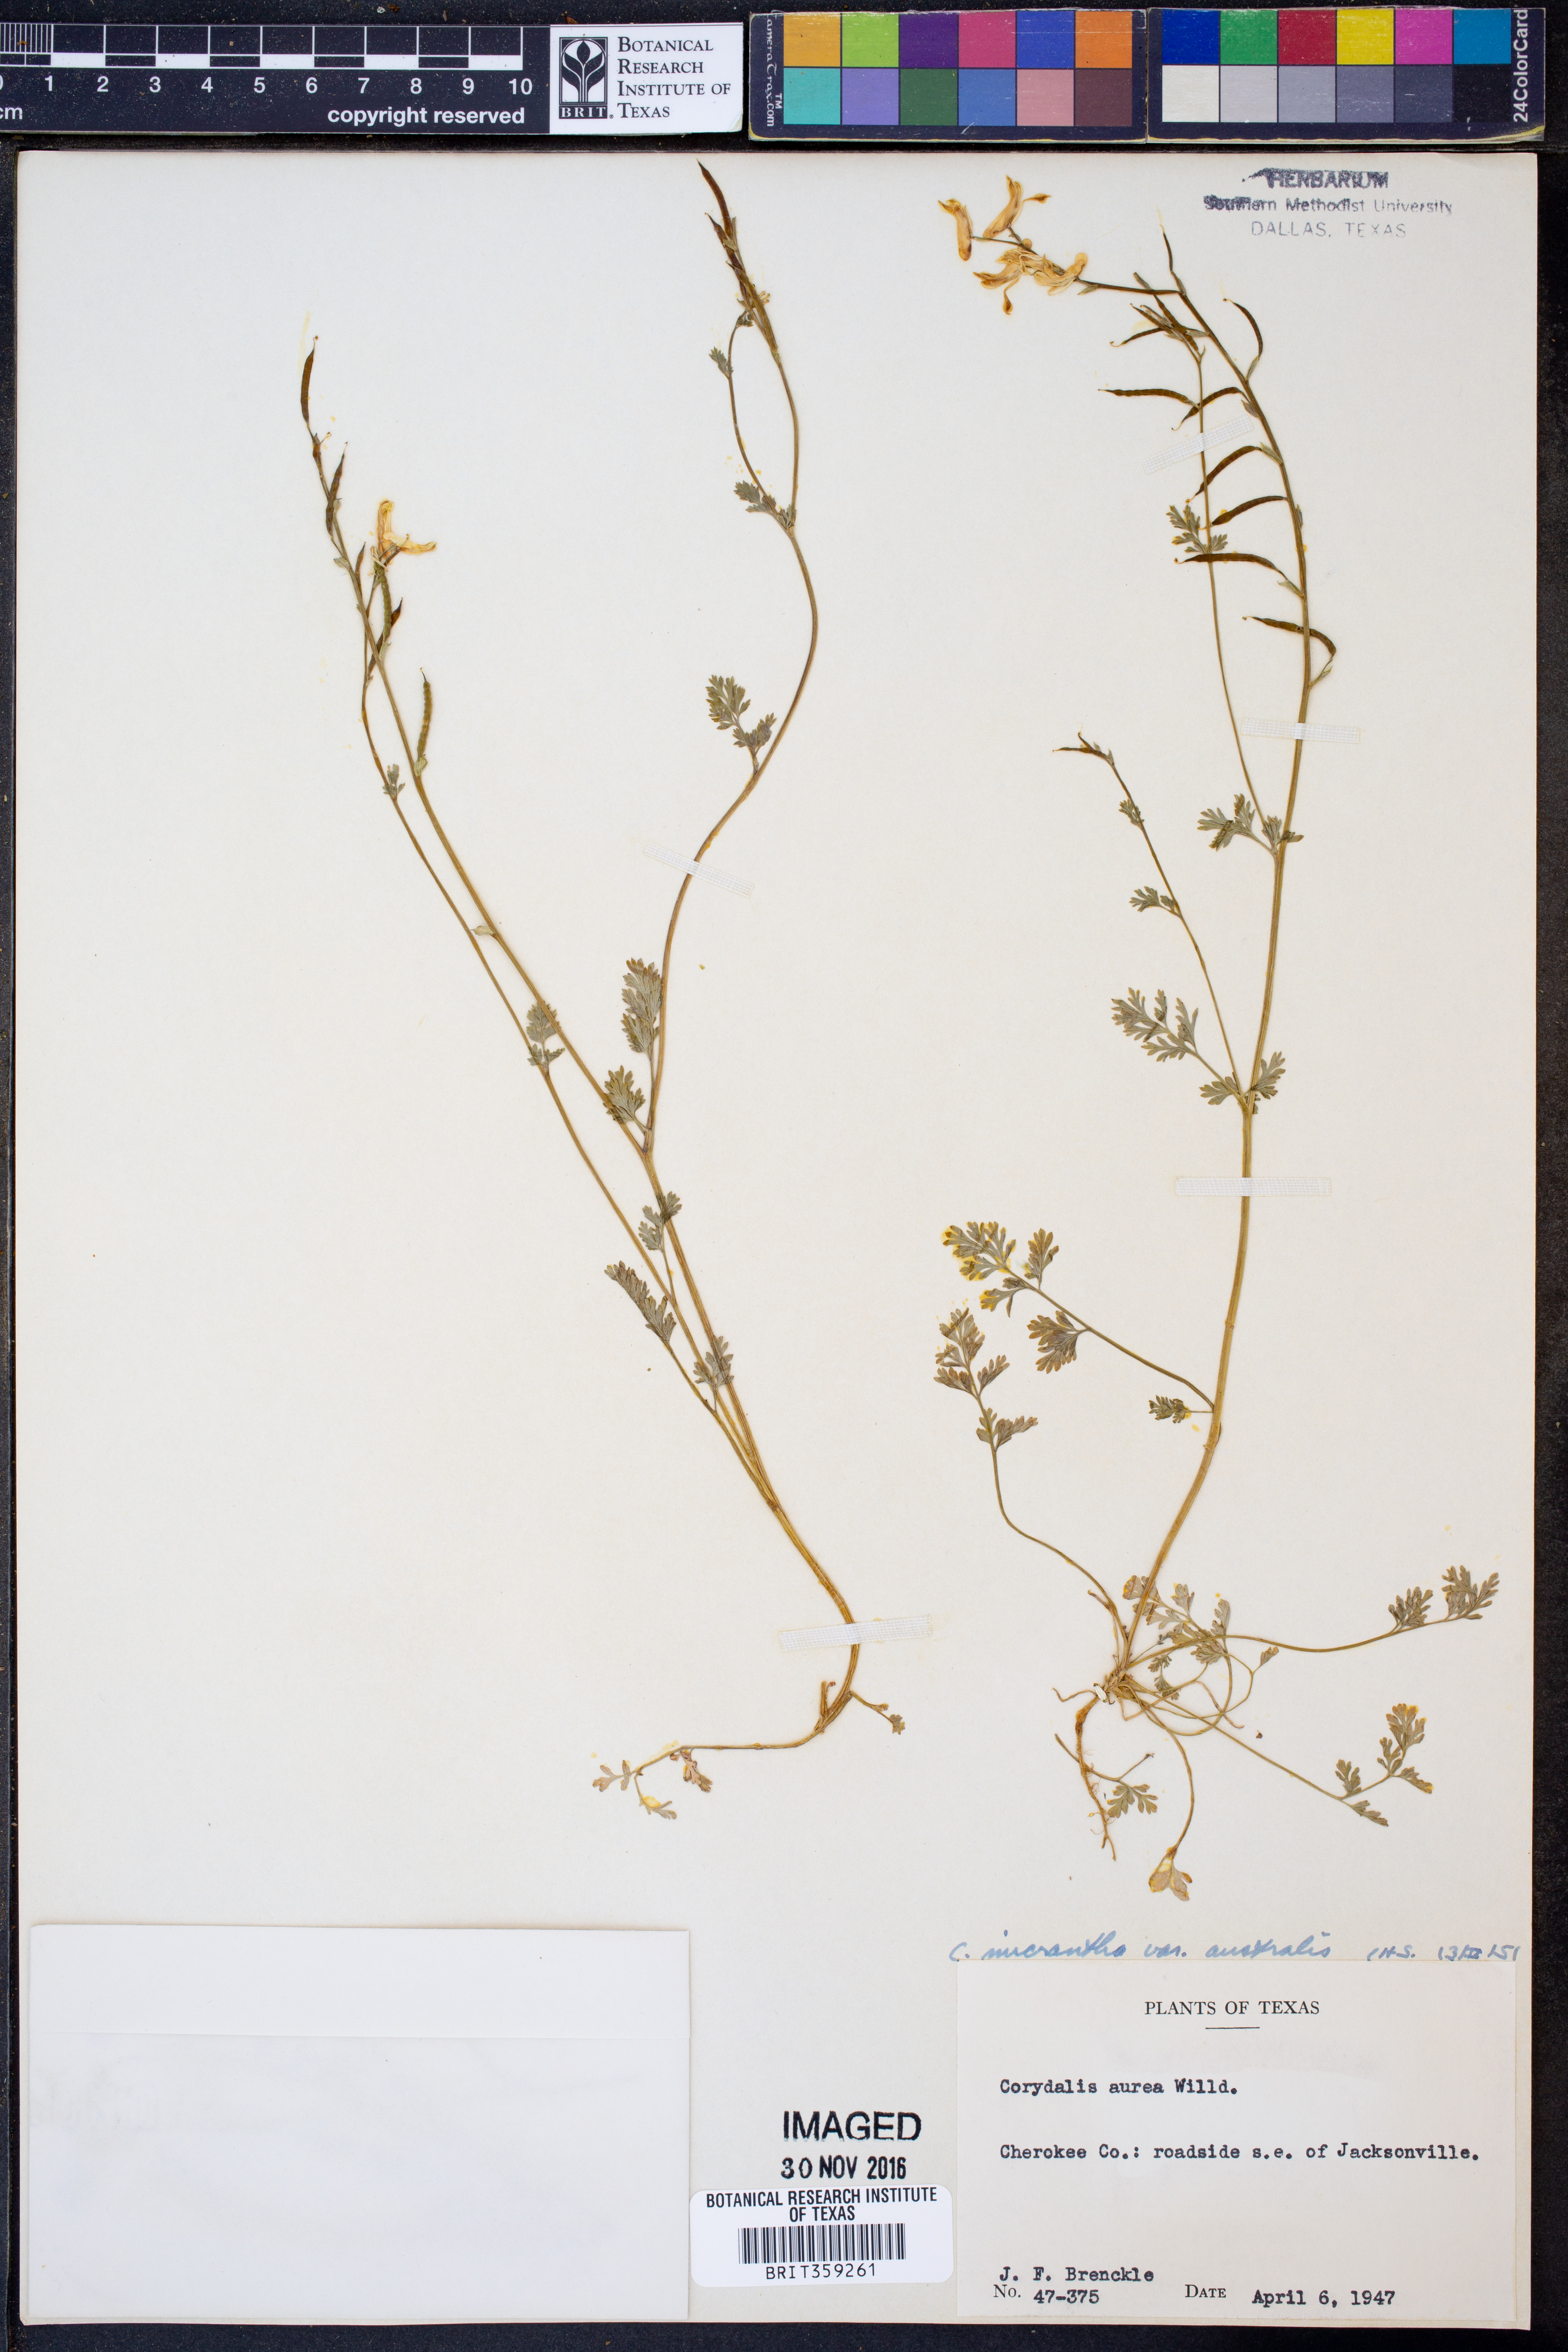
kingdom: Plantae
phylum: Tracheophyta
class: Magnoliopsida
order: Ranunculales
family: Papaveraceae
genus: Corydalis
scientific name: Corydalis micrantha
